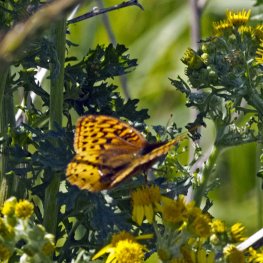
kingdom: Animalia
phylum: Arthropoda
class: Insecta
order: Lepidoptera
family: Nymphalidae
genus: Speyeria
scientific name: Speyeria cybele
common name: Great Spangled Fritillary
